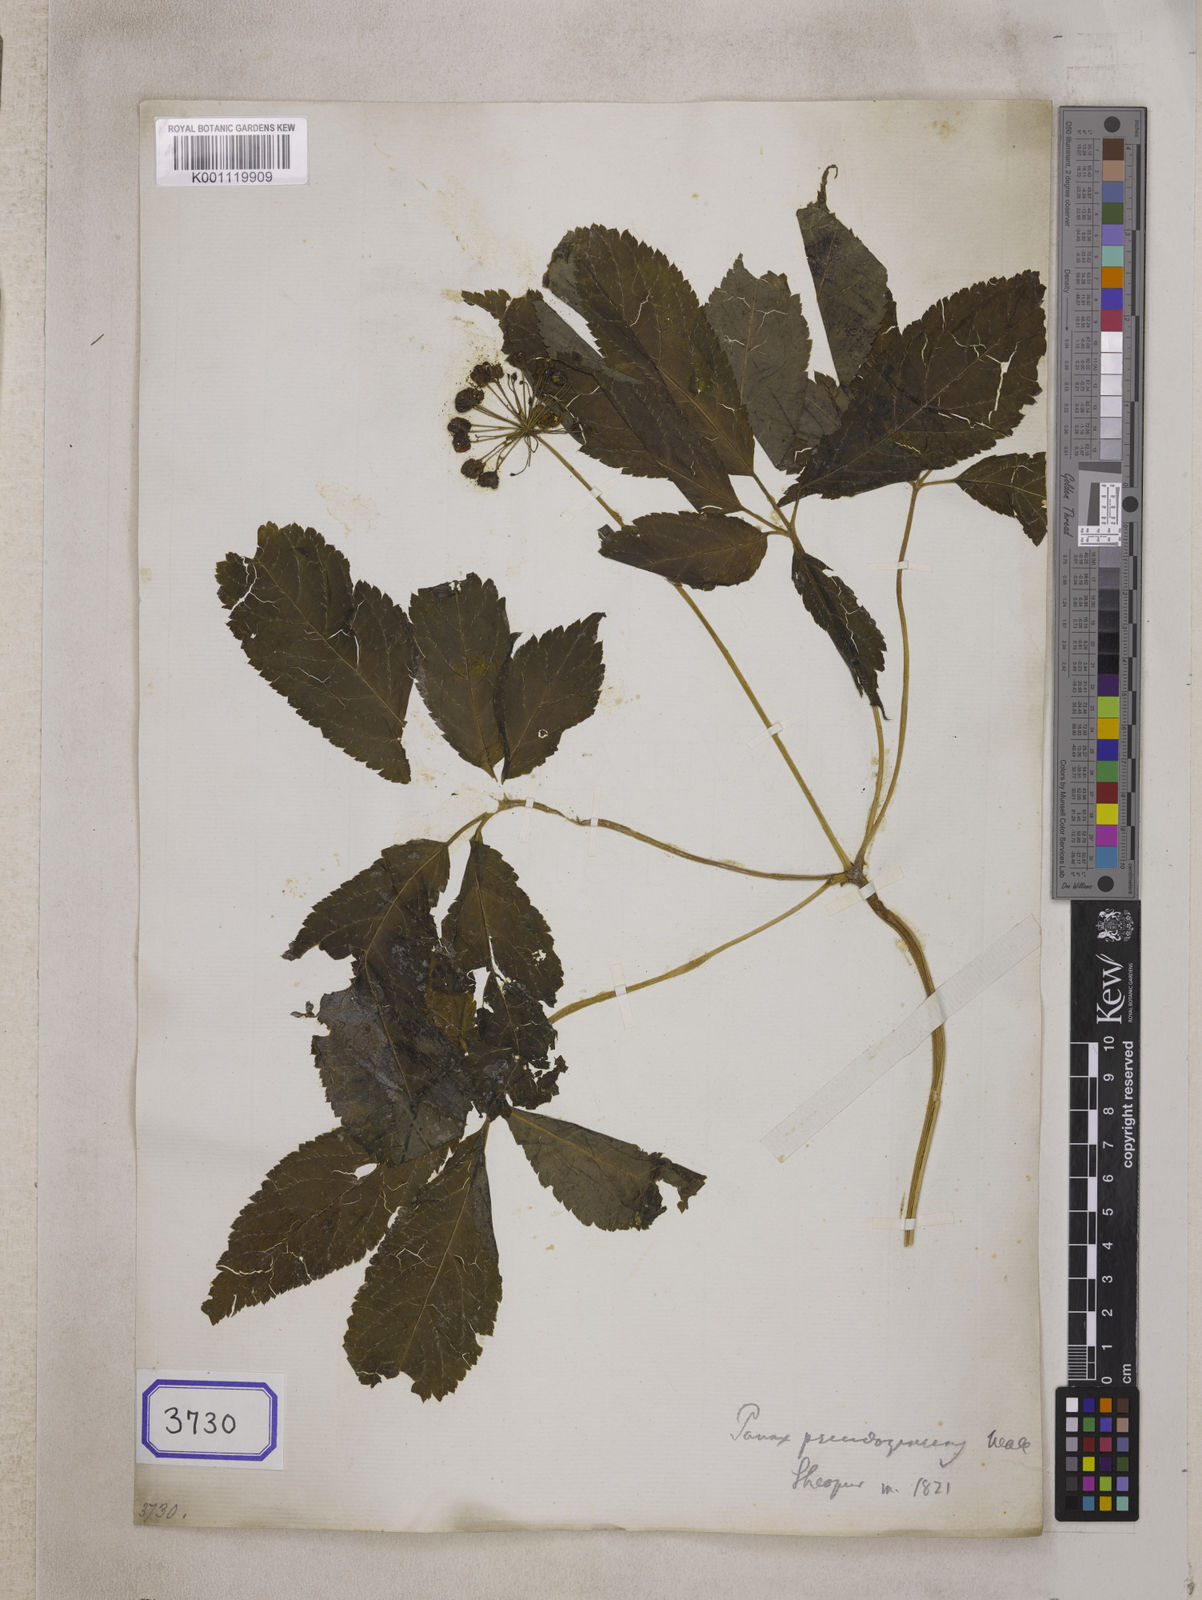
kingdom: Plantae
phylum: Tracheophyta
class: Magnoliopsida
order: Apiales
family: Araliaceae
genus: Panax
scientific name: Panax pseudoginseng
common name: Pseudoginseng
